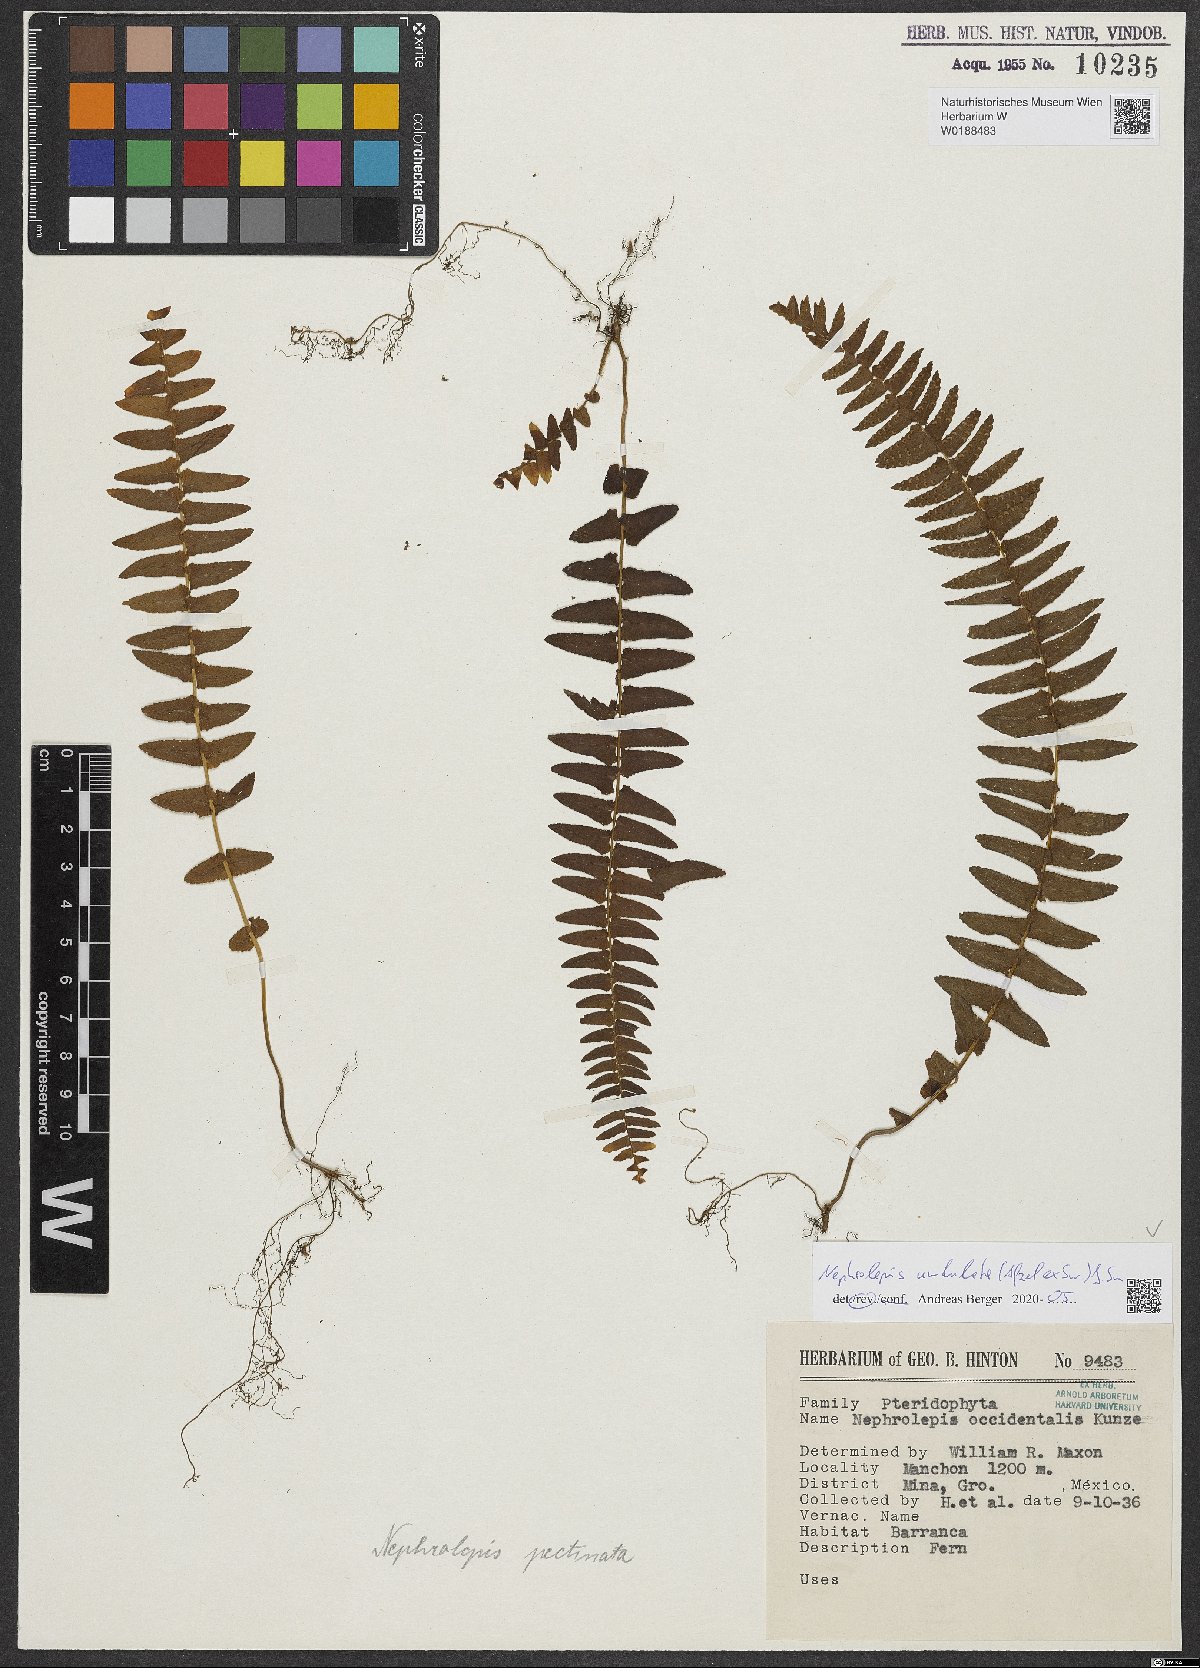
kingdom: Plantae
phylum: Tracheophyta
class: Polypodiopsida
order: Polypodiales
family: Nephrolepidaceae
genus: Nephrolepis
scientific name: Nephrolepis undulata
